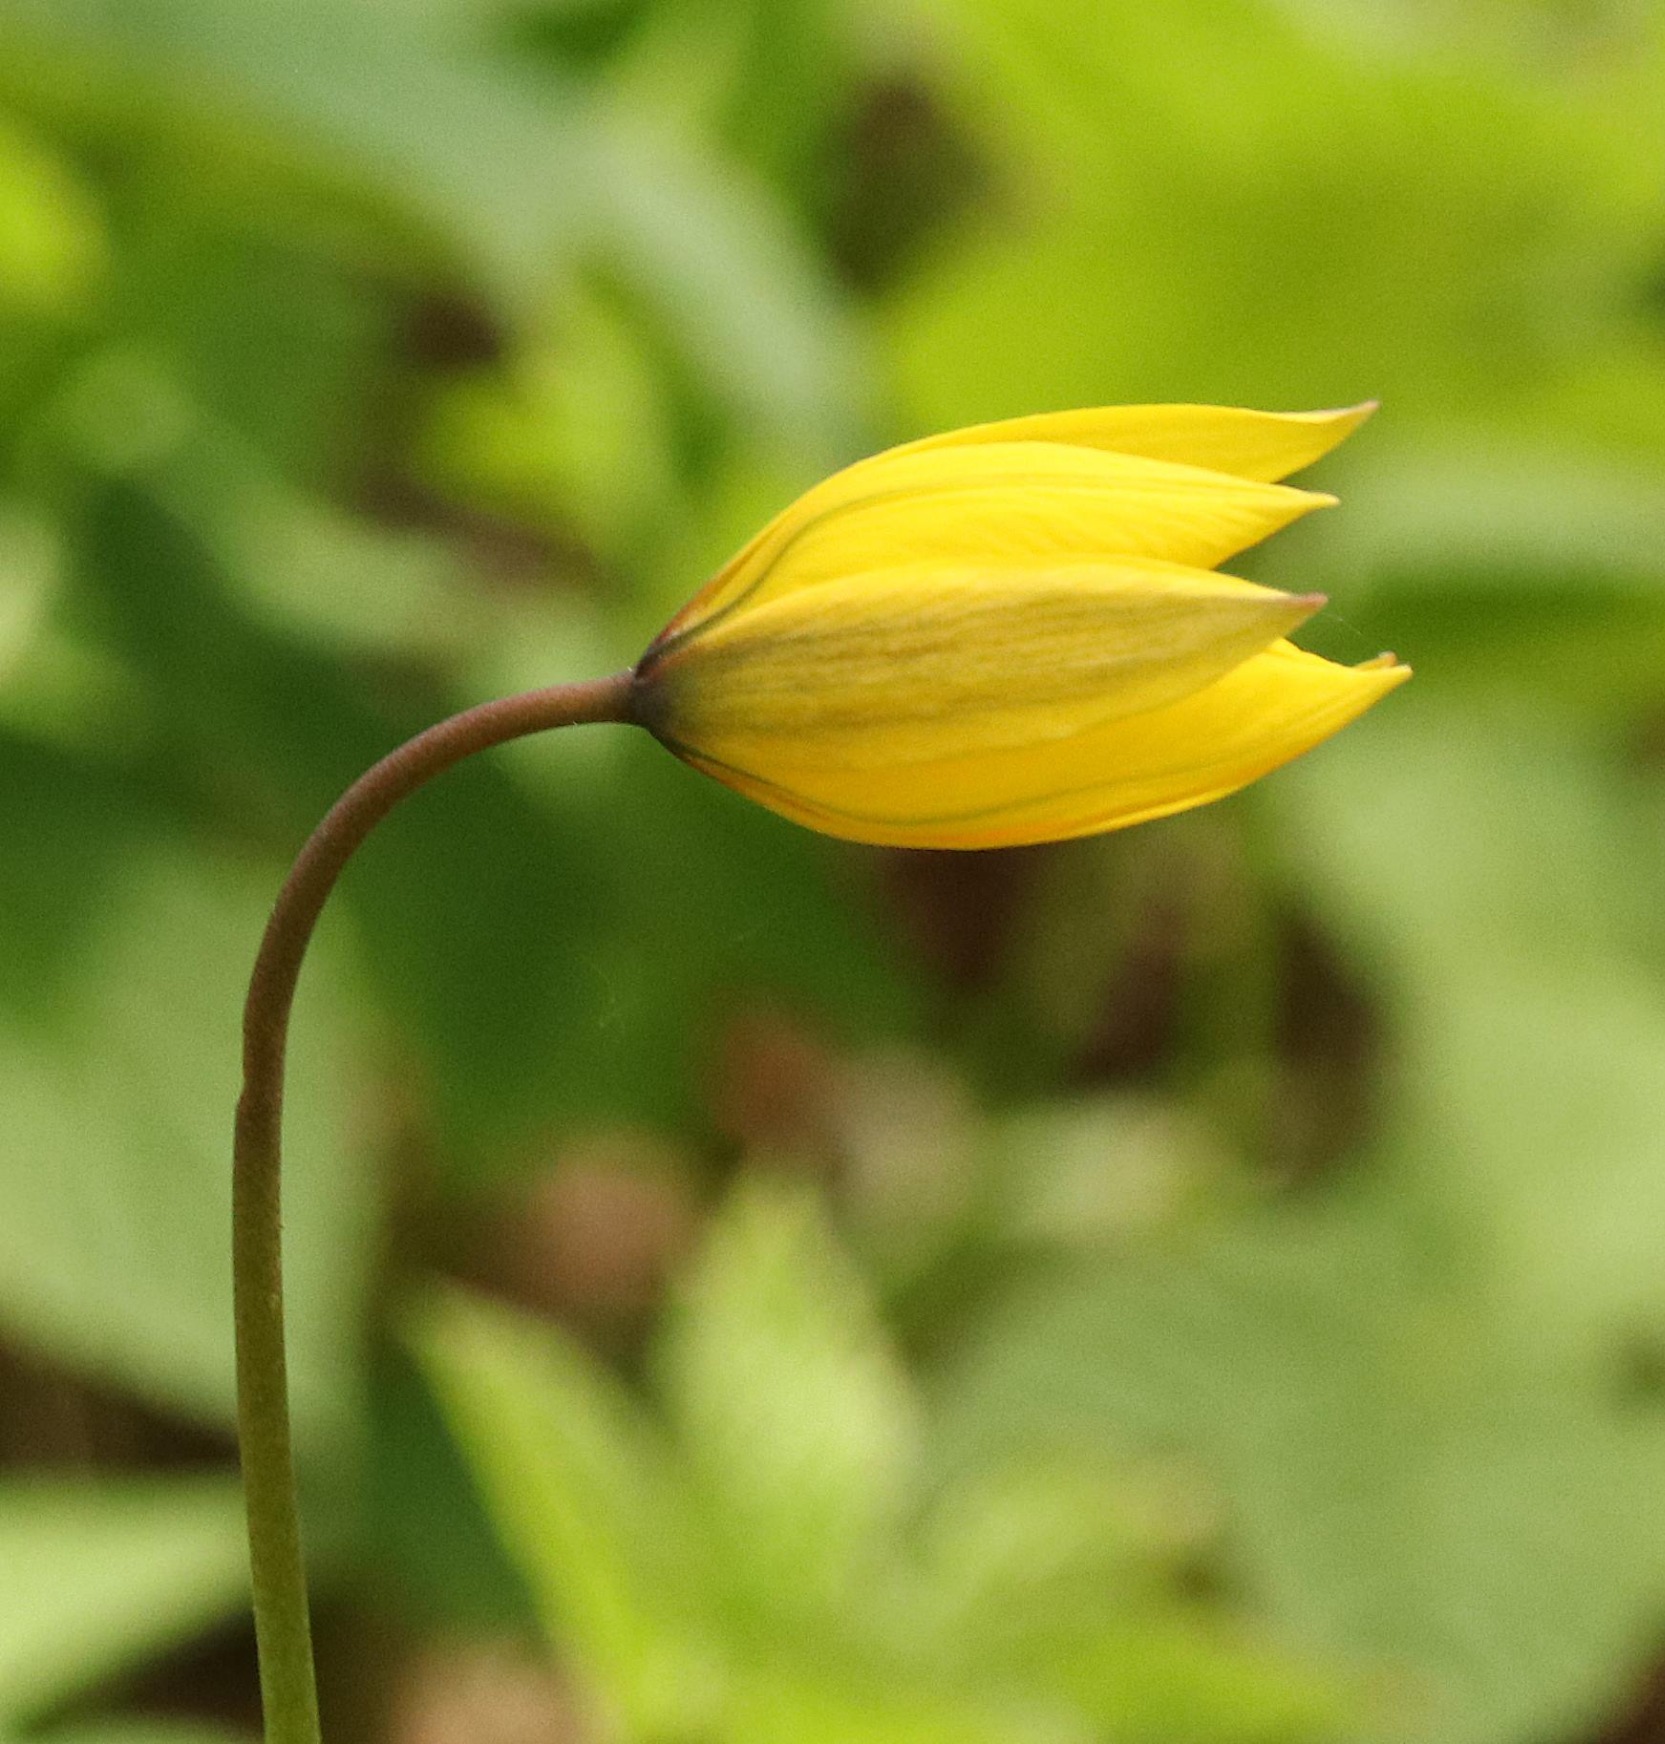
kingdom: Plantae
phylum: Tracheophyta
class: Liliopsida
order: Liliales
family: Liliaceae
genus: Tulipa
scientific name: Tulipa sylvestris
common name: Vild tulipan
